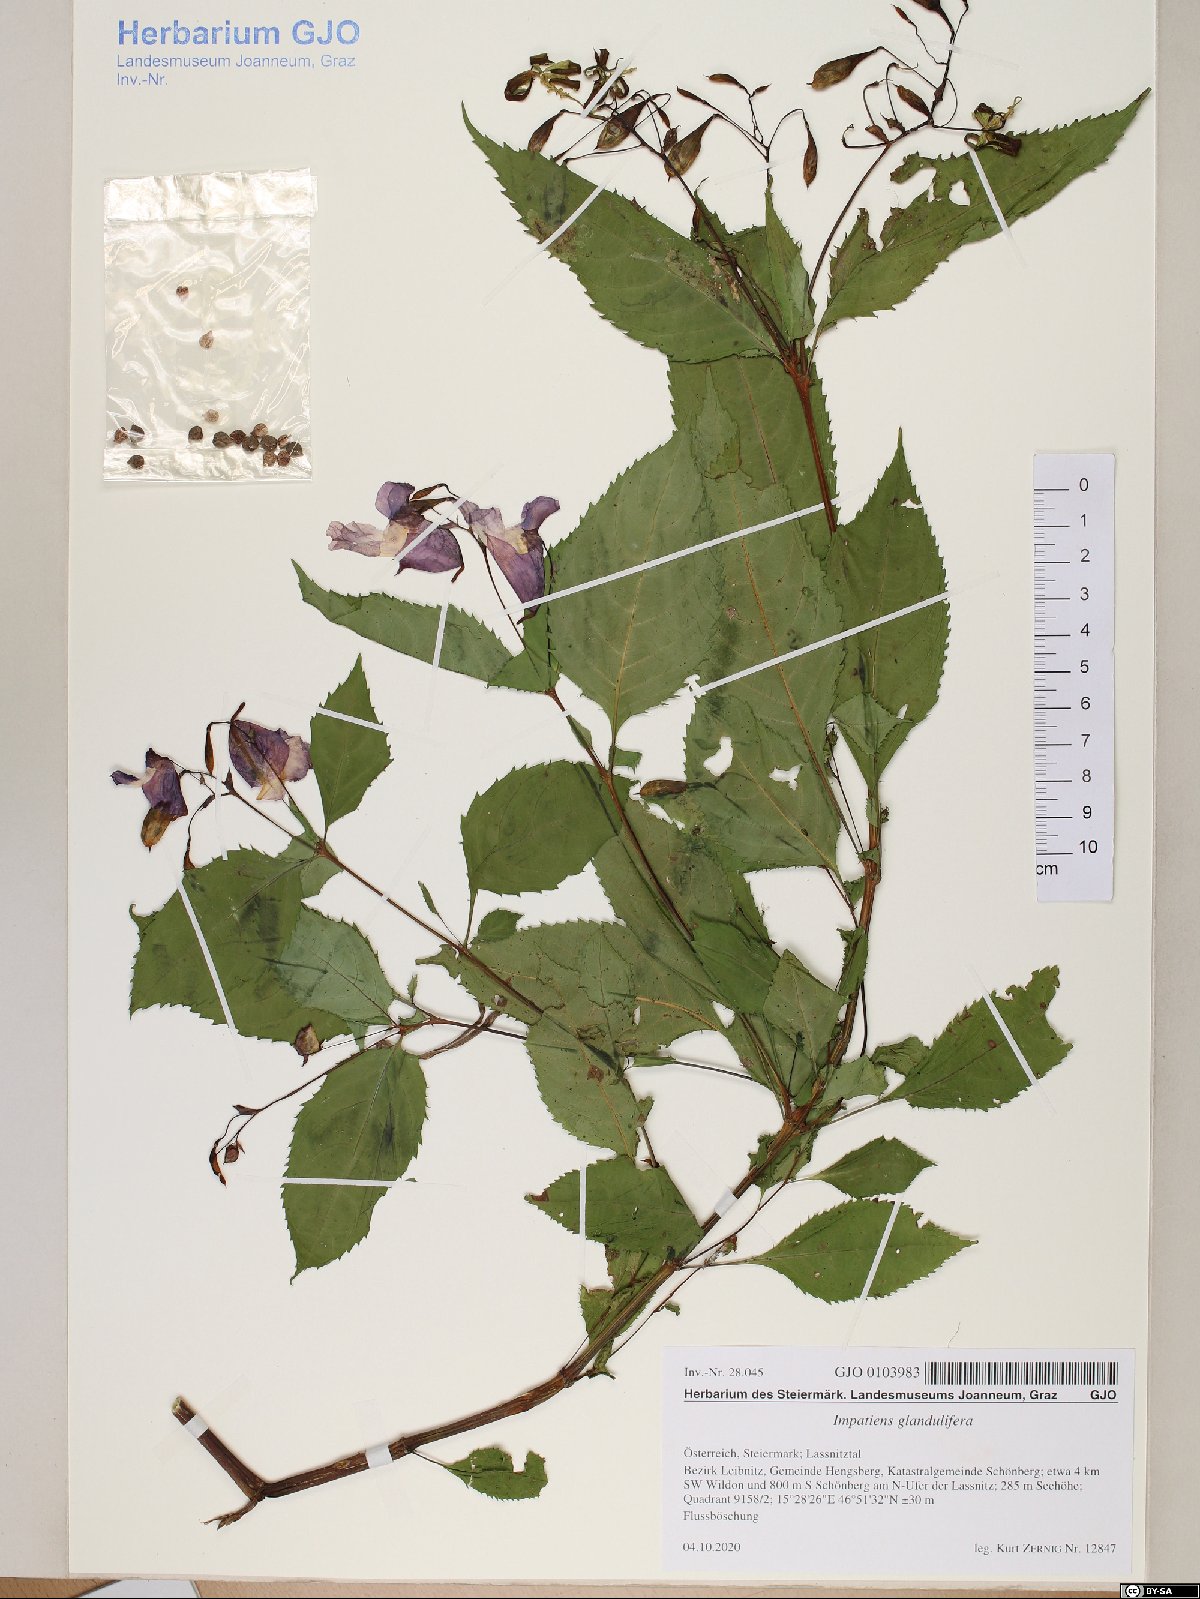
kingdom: Plantae
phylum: Tracheophyta
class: Magnoliopsida
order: Ericales
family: Balsaminaceae
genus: Impatiens
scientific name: Impatiens glandulifera
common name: Himalayan balsam
